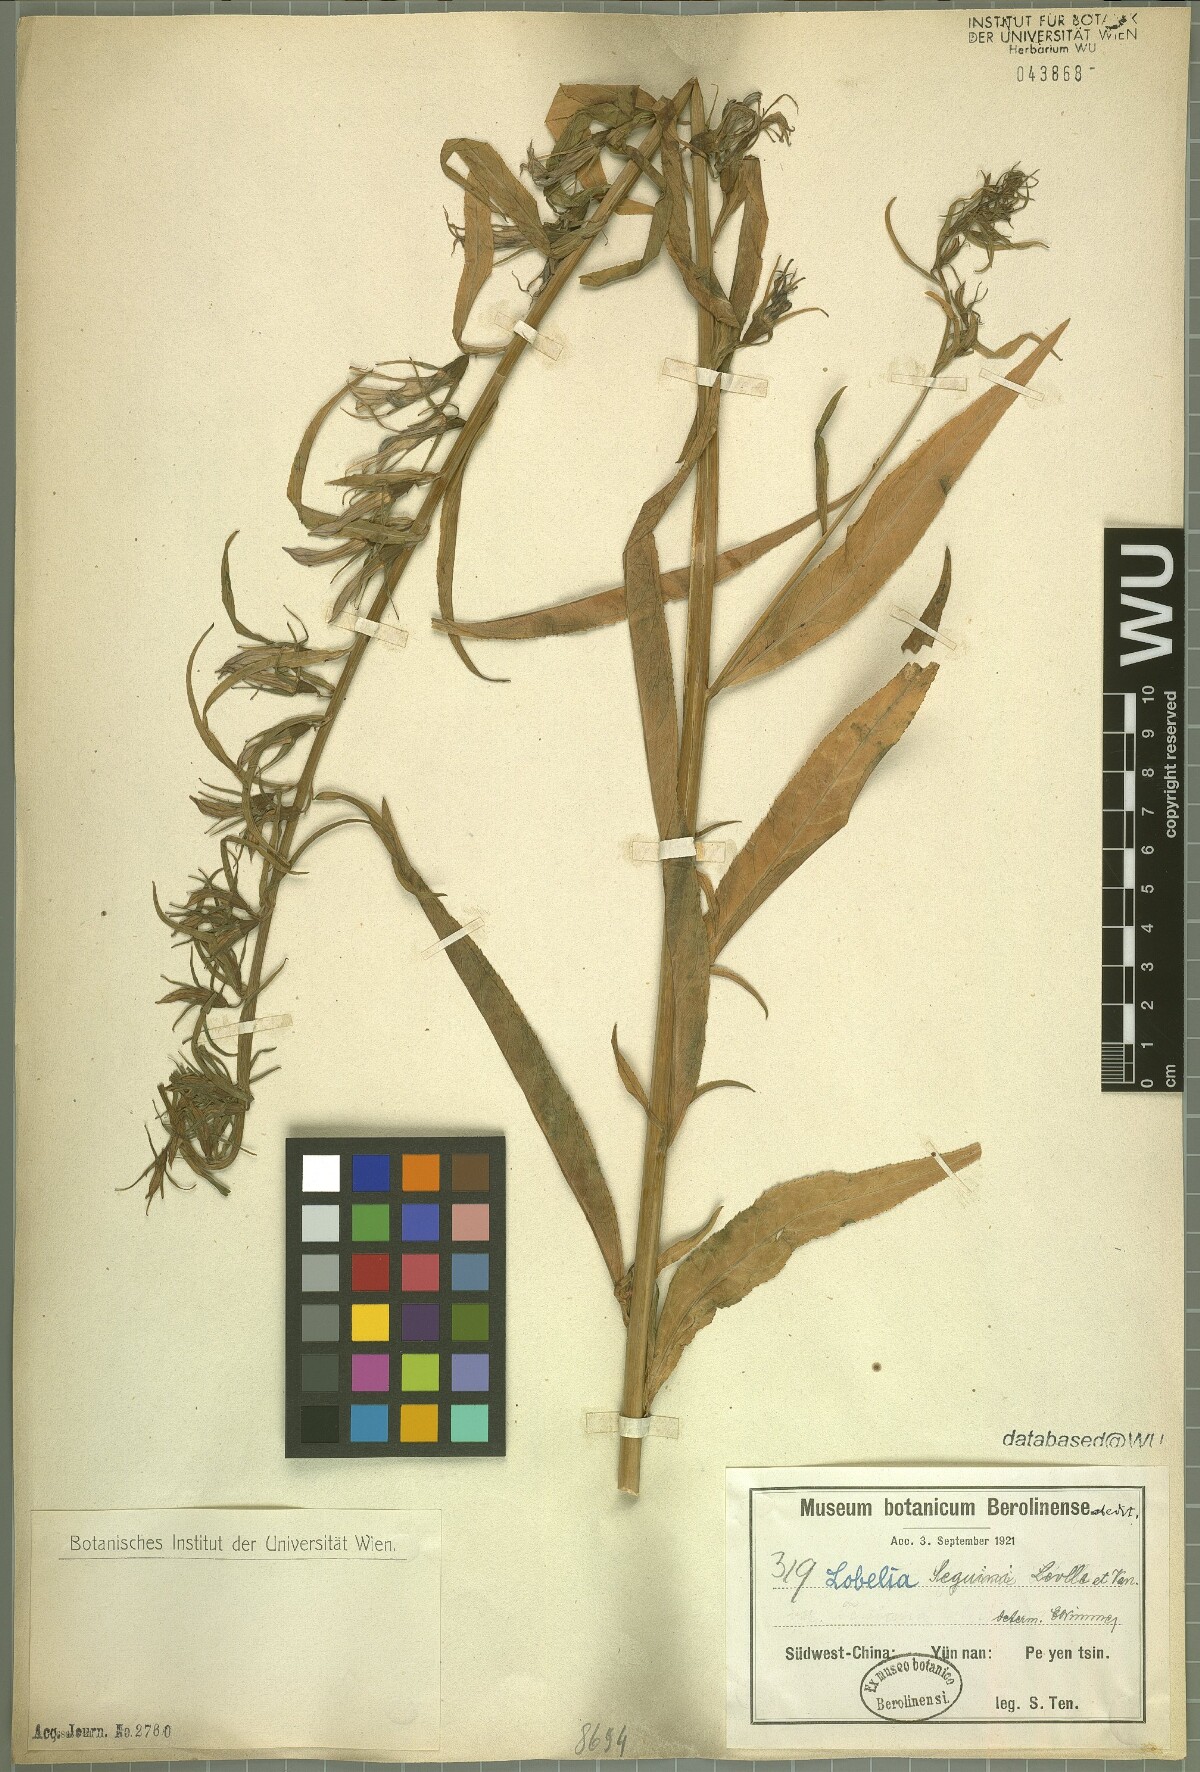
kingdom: Plantae
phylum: Tracheophyta
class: Magnoliopsida
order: Asterales
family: Campanulaceae
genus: Lobelia
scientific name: Lobelia seguinii
